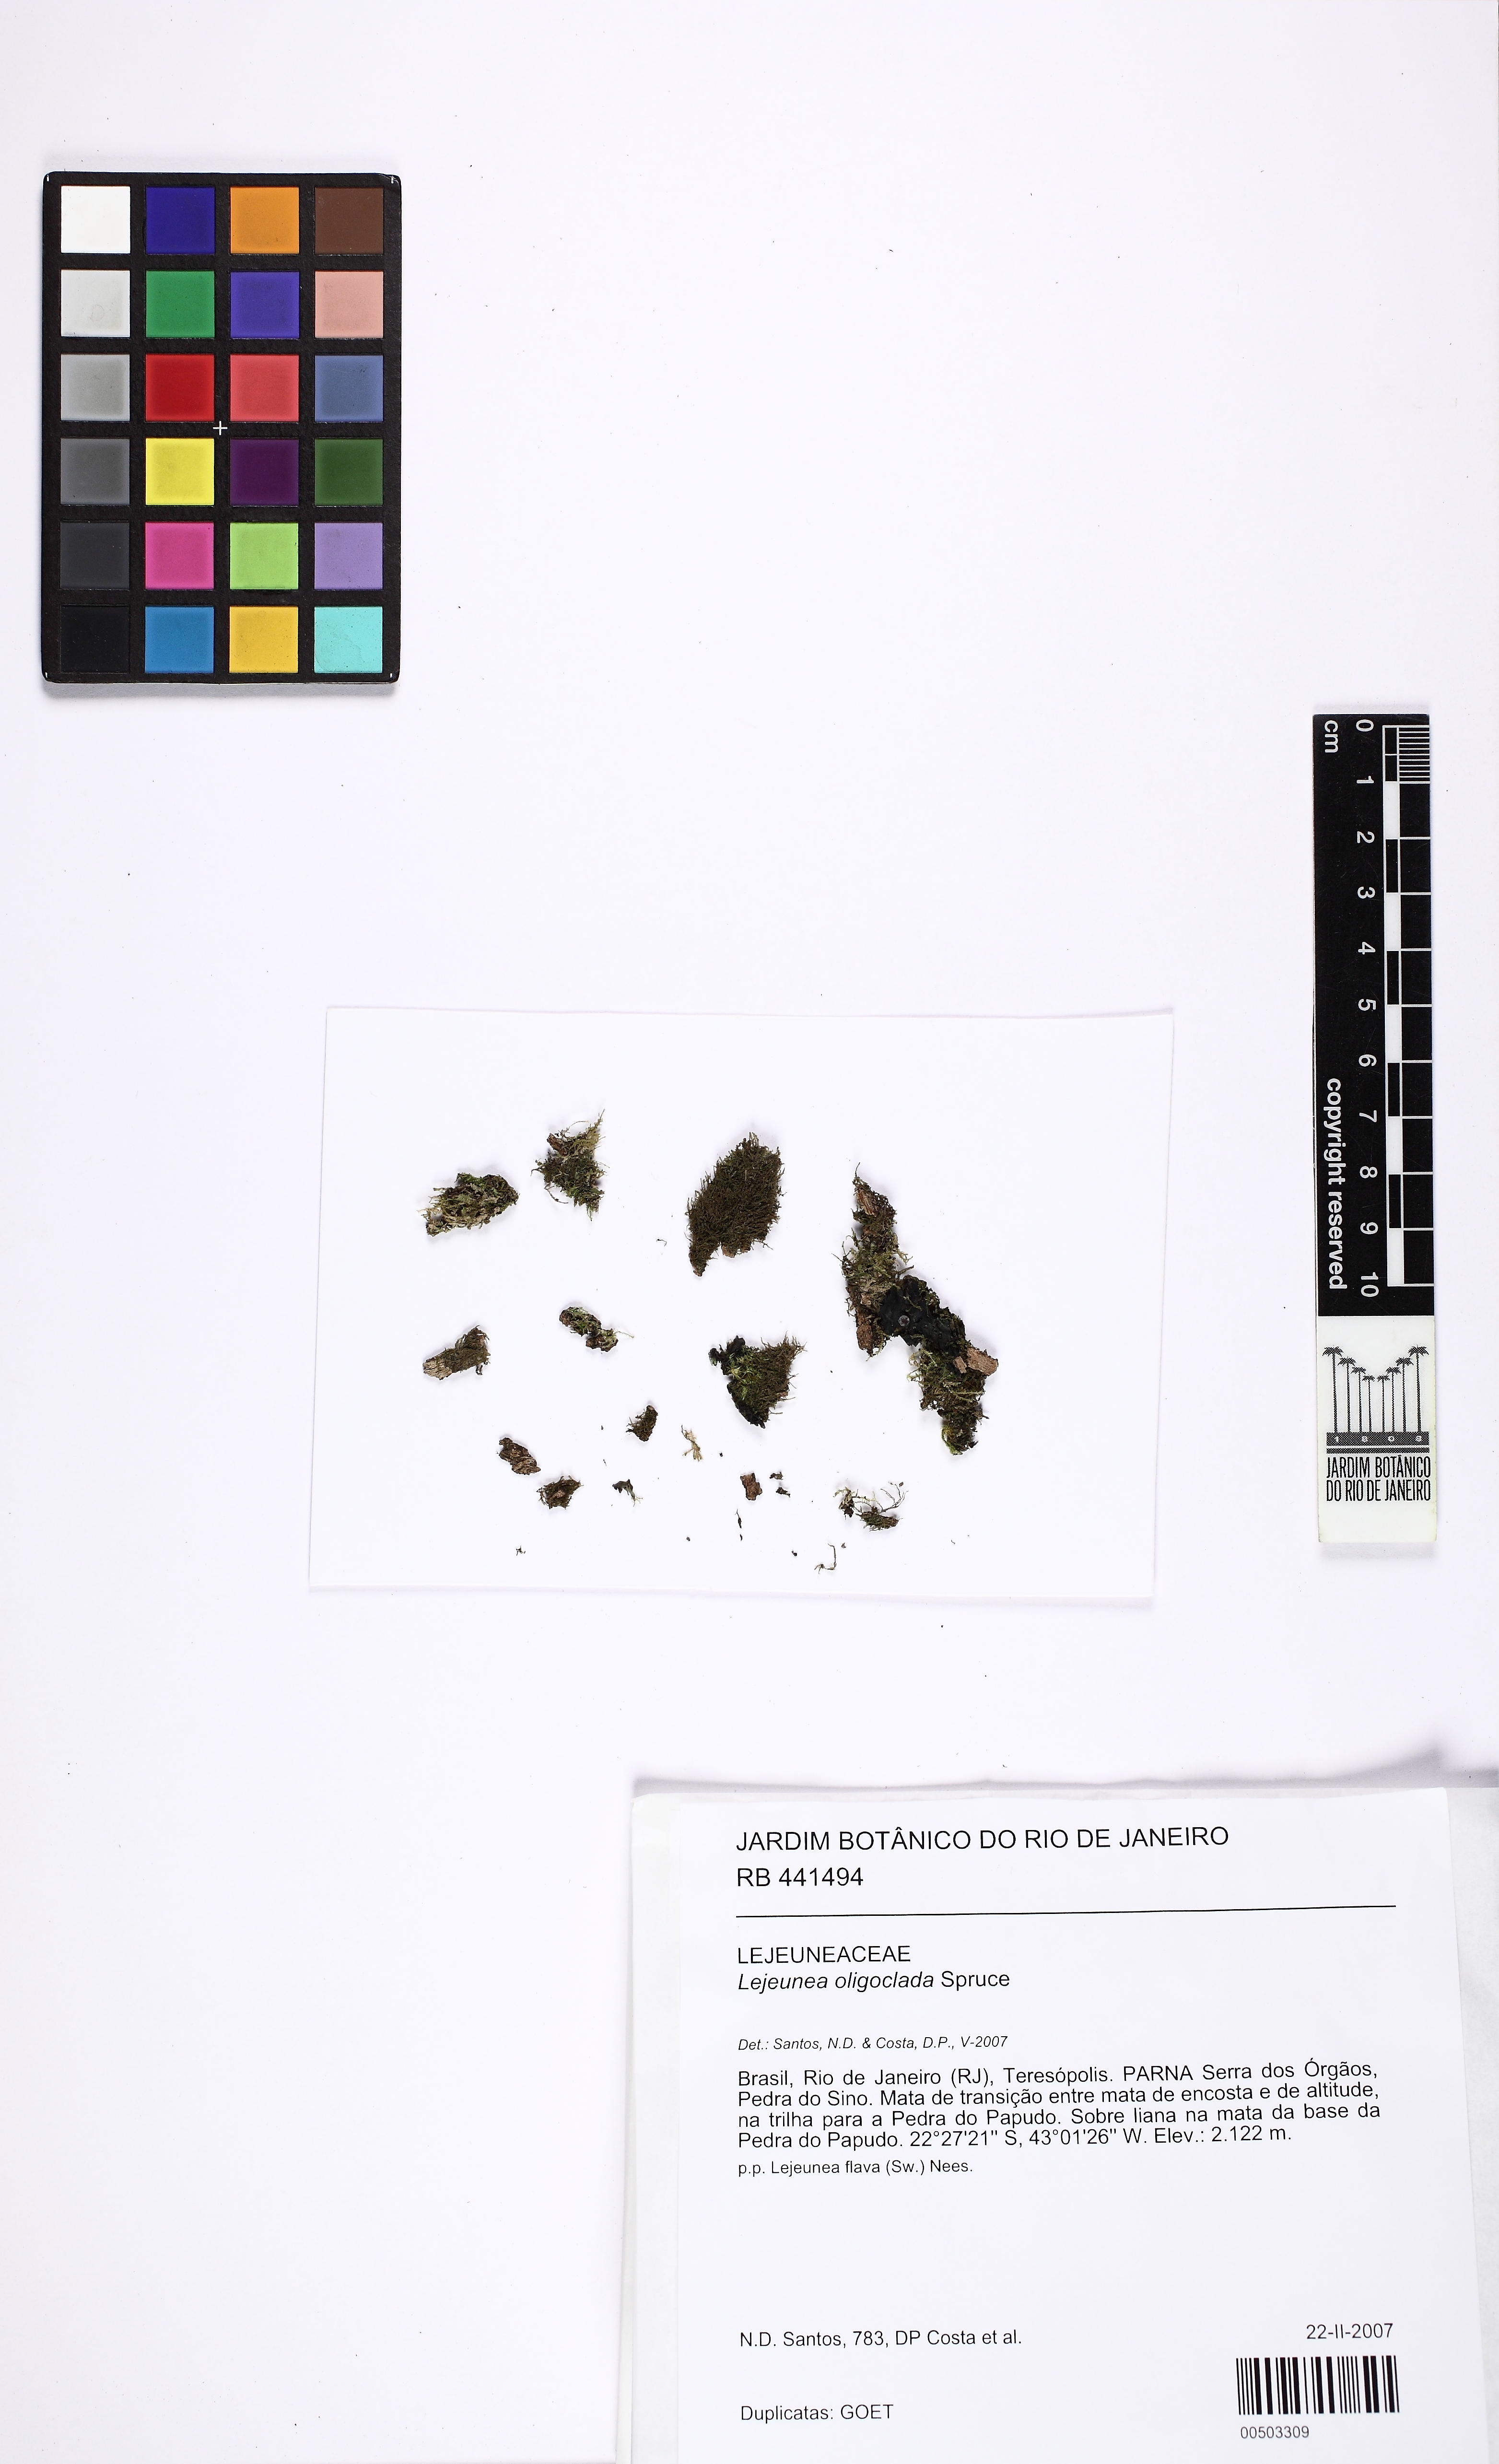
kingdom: Plantae
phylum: Marchantiophyta
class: Jungermanniopsida
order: Porellales
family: Lejeuneaceae
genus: Lejeunea
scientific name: Lejeunea oligoclada
